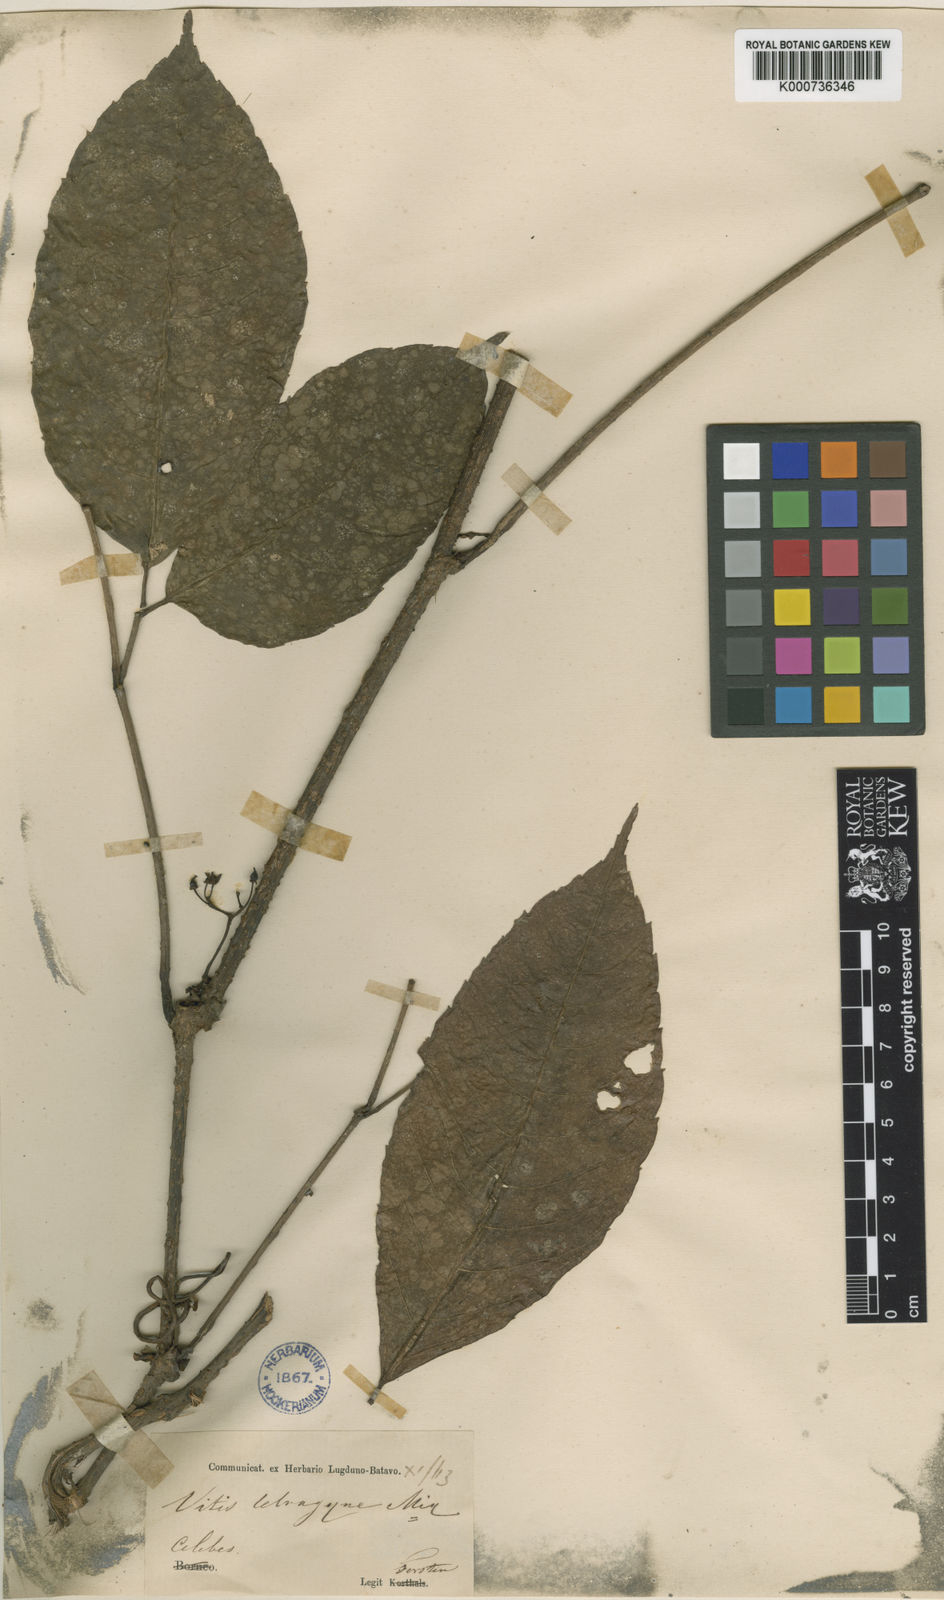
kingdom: Plantae
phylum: Tracheophyta
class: Magnoliopsida
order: Vitales
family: Vitaceae
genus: Tetrastigma
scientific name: Tetrastigma tetragynum
